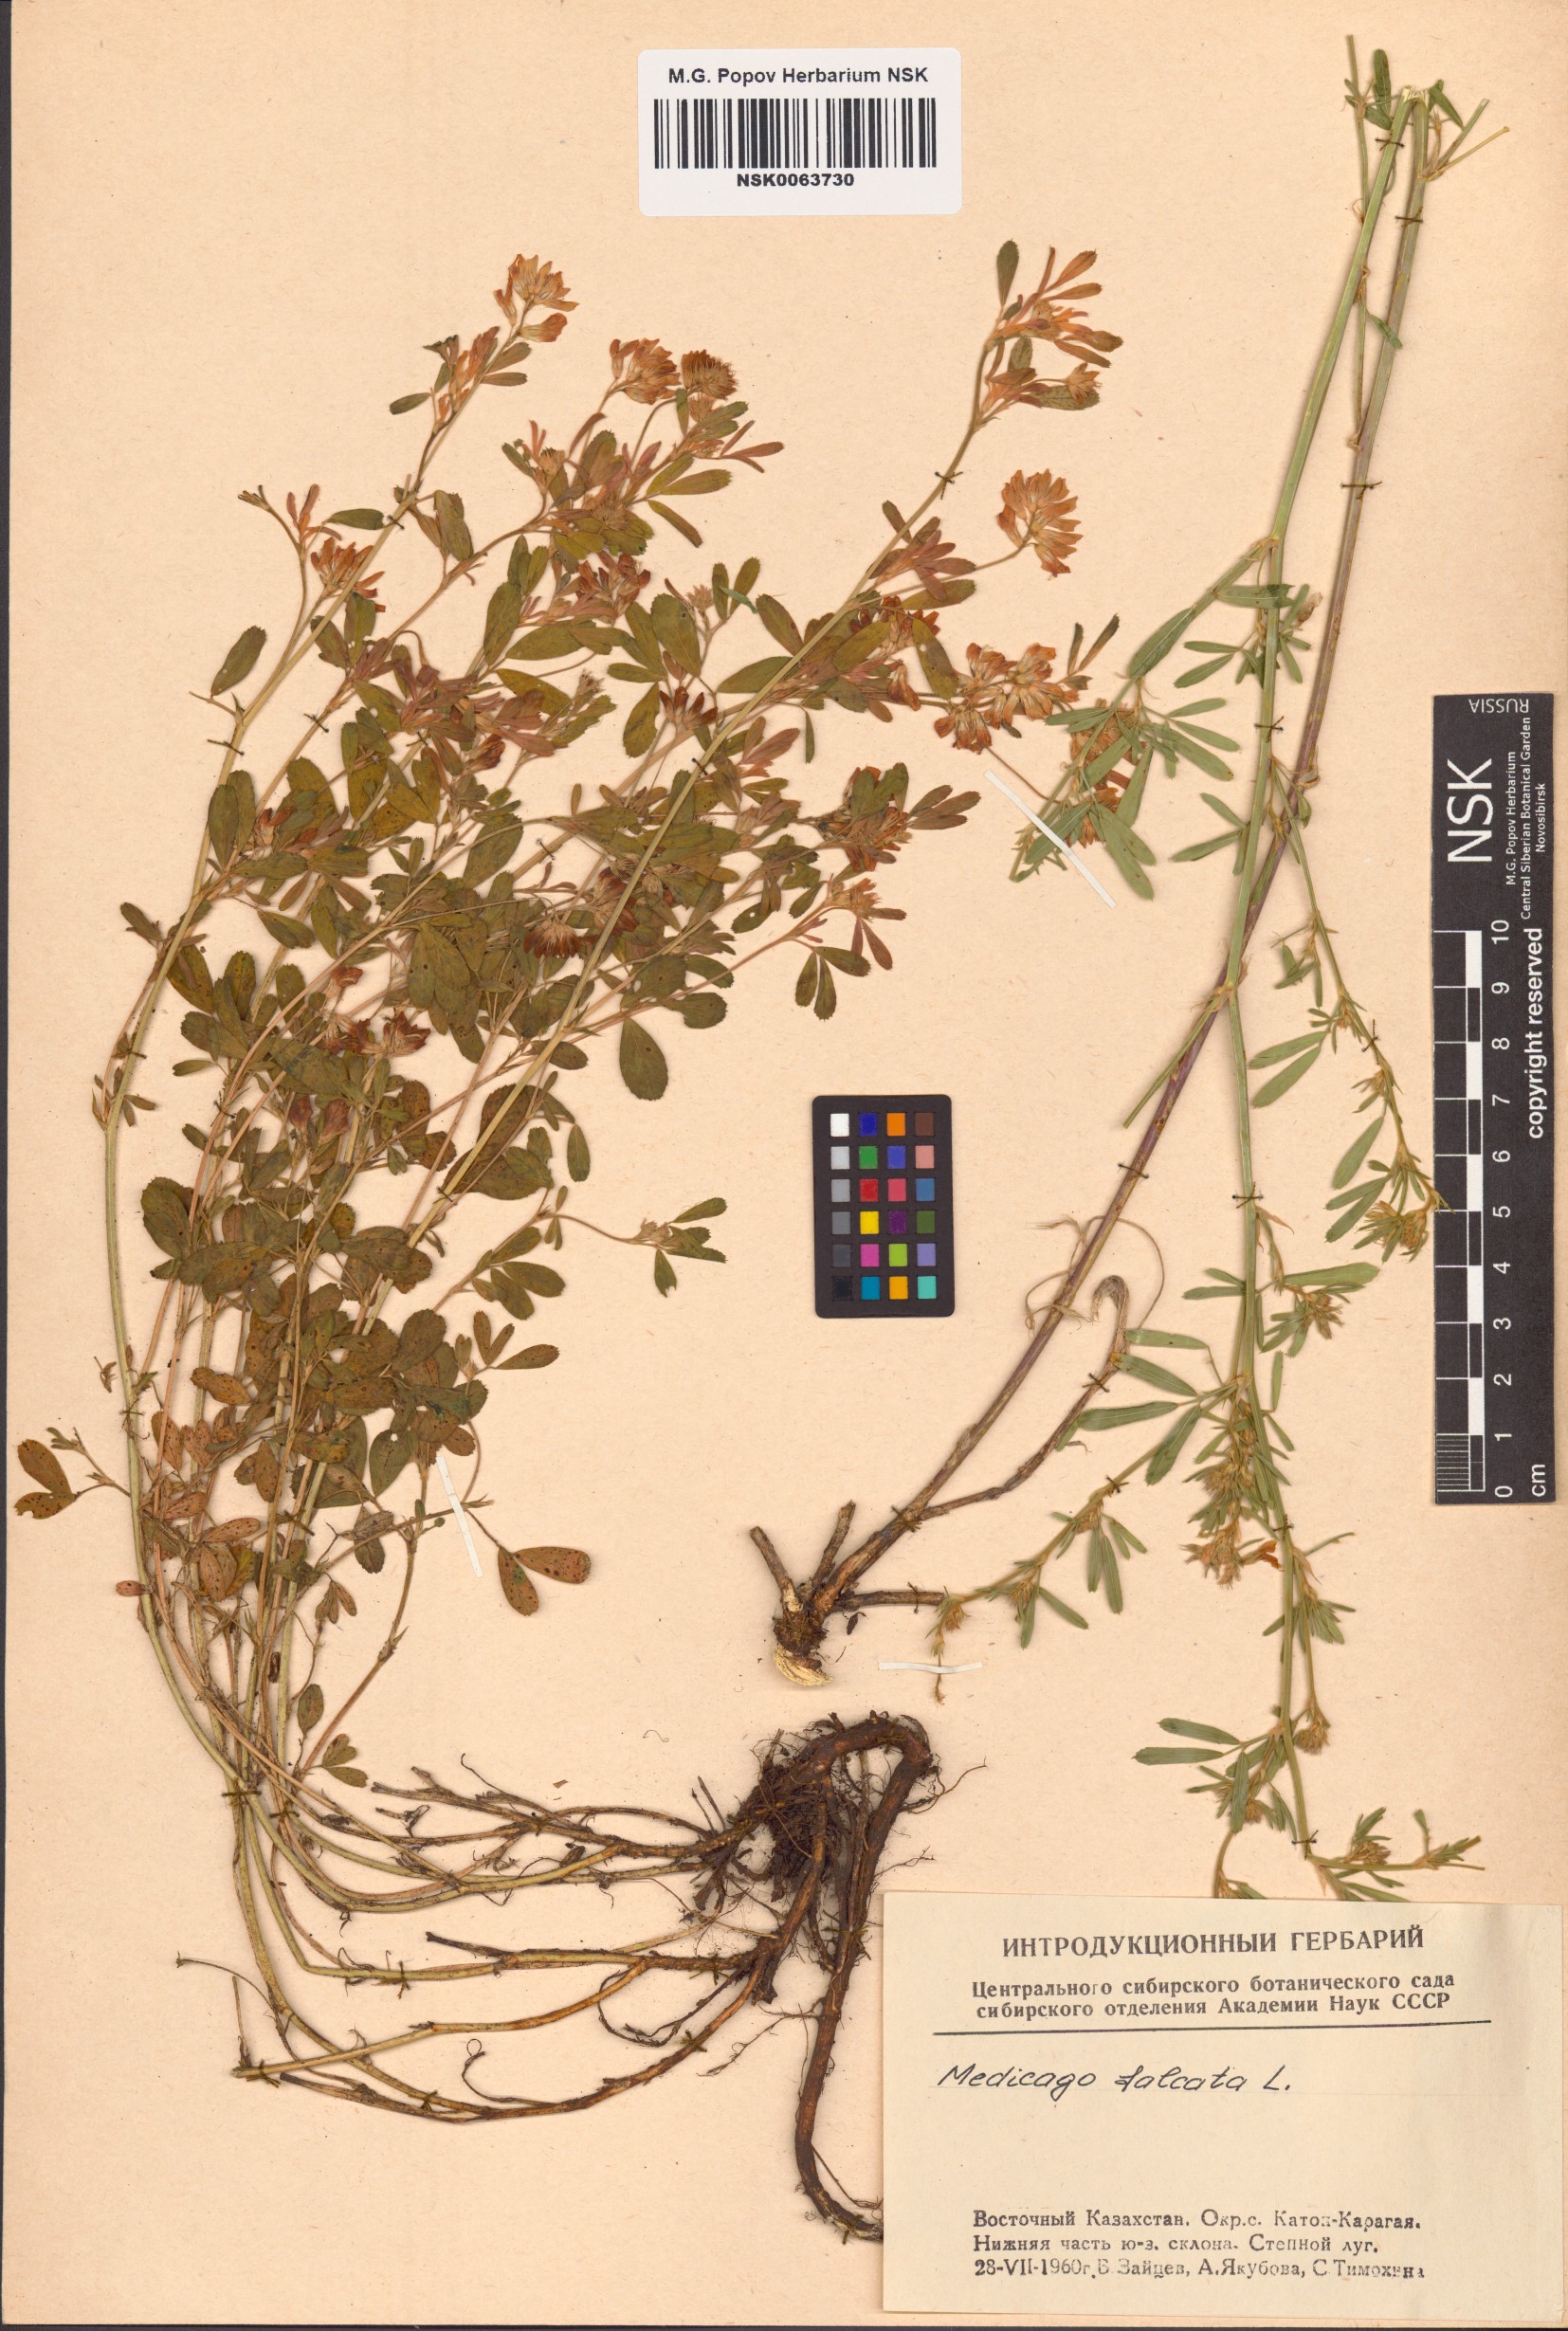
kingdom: Plantae
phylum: Tracheophyta
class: Magnoliopsida
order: Fabales
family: Fabaceae
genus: Medicago
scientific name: Medicago falcata
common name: Sickle medick
